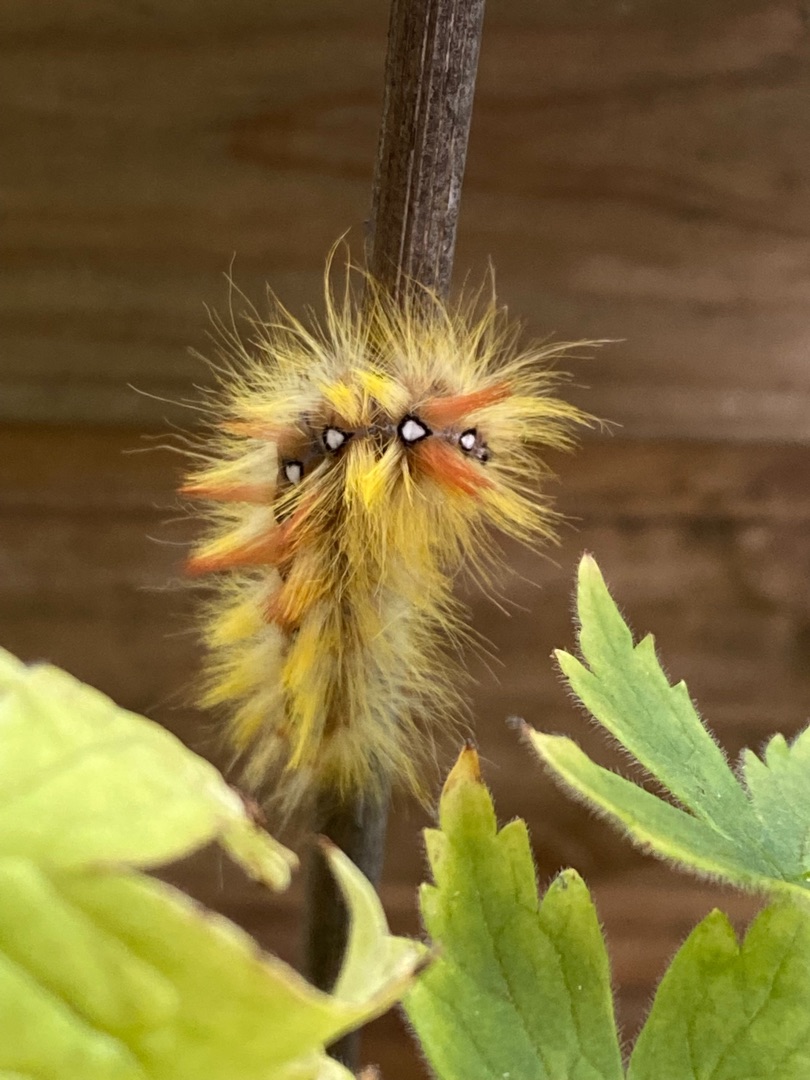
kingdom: Animalia
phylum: Arthropoda
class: Insecta
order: Lepidoptera
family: Noctuidae
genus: Acronicta
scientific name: Acronicta aceris
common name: Ahornugle
